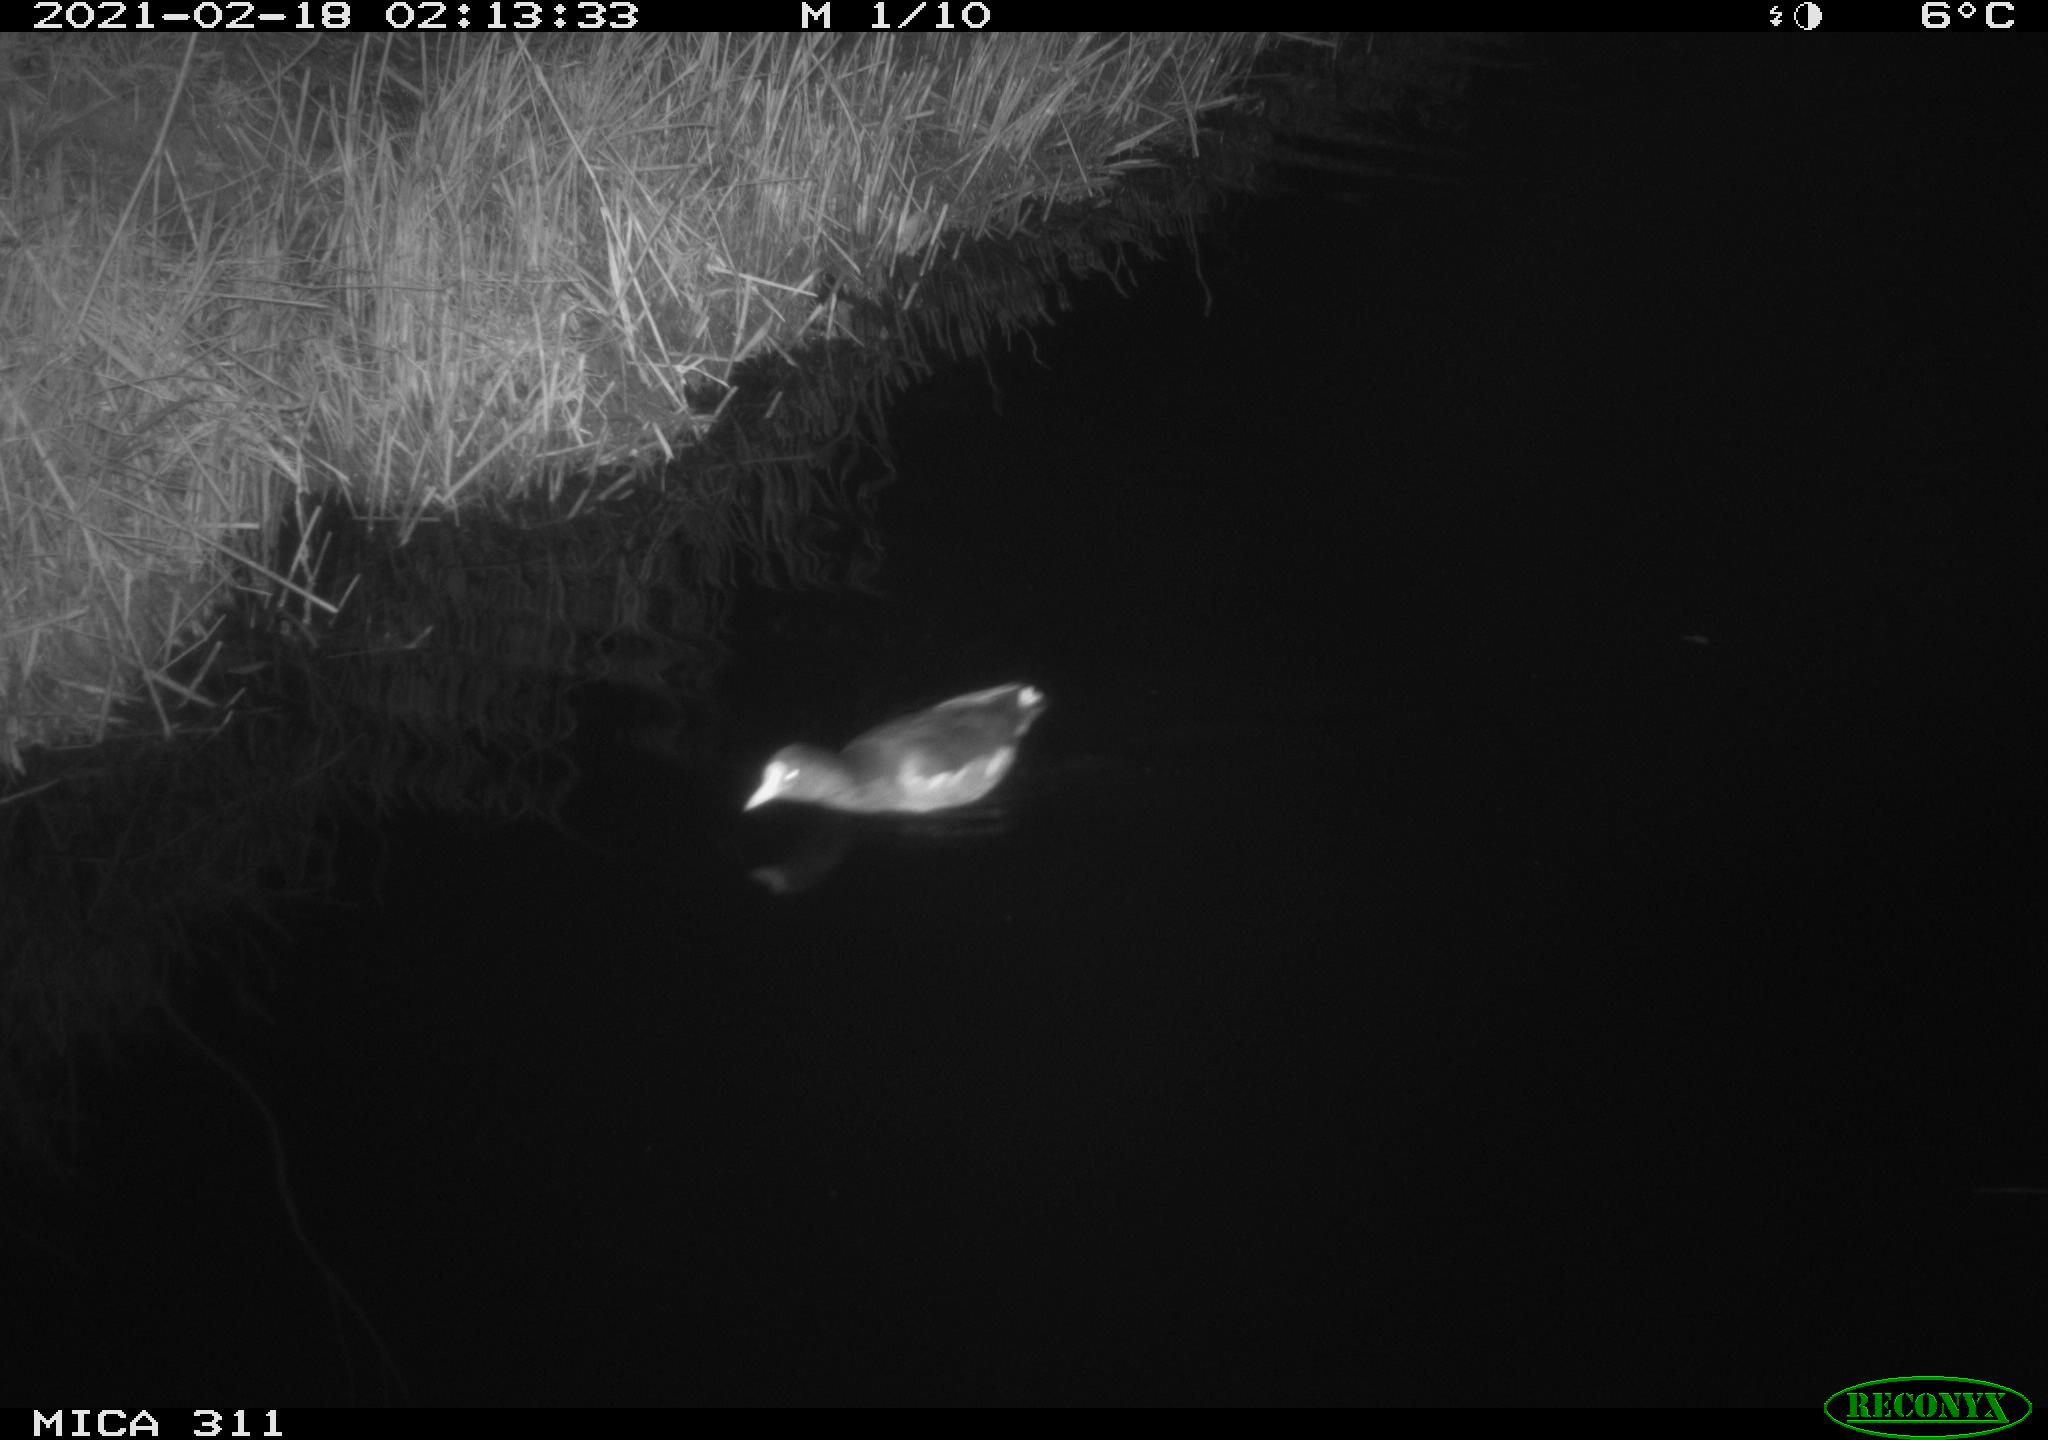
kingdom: Animalia
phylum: Chordata
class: Aves
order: Gruiformes
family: Rallidae
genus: Gallinula
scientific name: Gallinula chloropus
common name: Common moorhen
